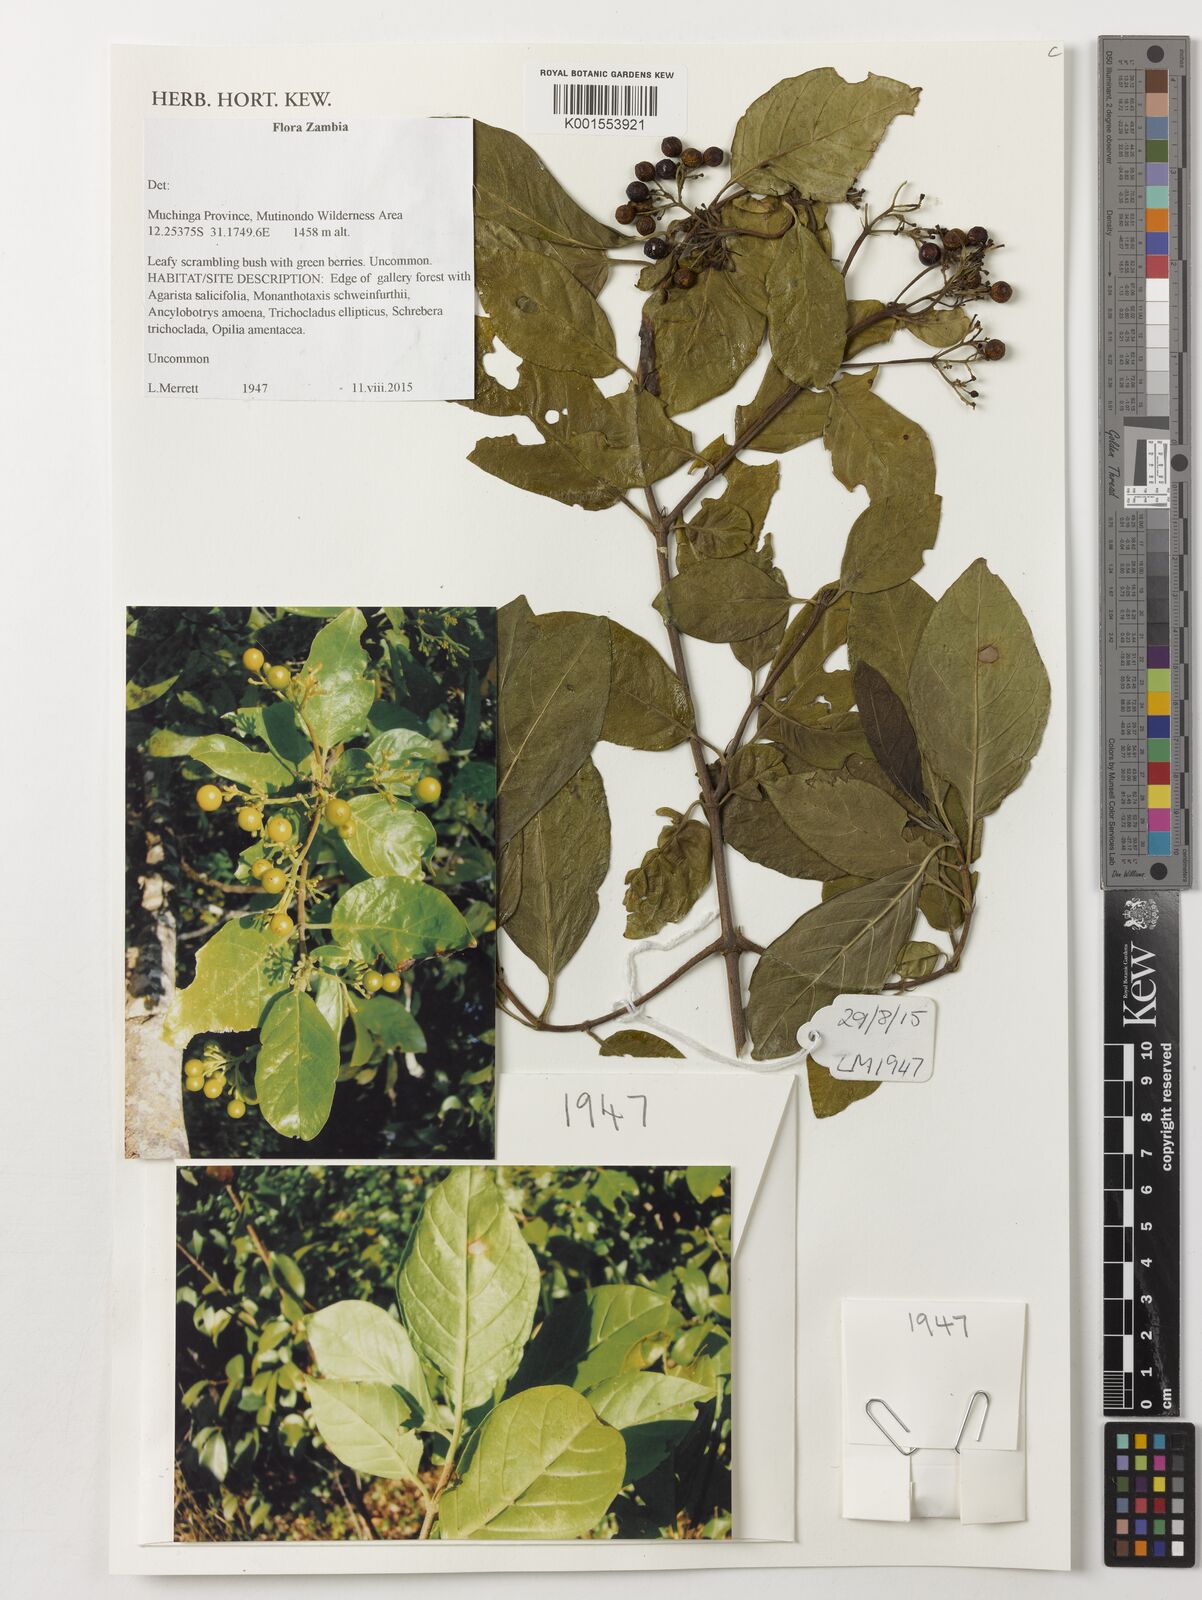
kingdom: Plantae
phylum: Tracheophyta
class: Magnoliopsida
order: Gentianales
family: Rubiaceae
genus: Rutidea
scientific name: Rutidea fuscescens
